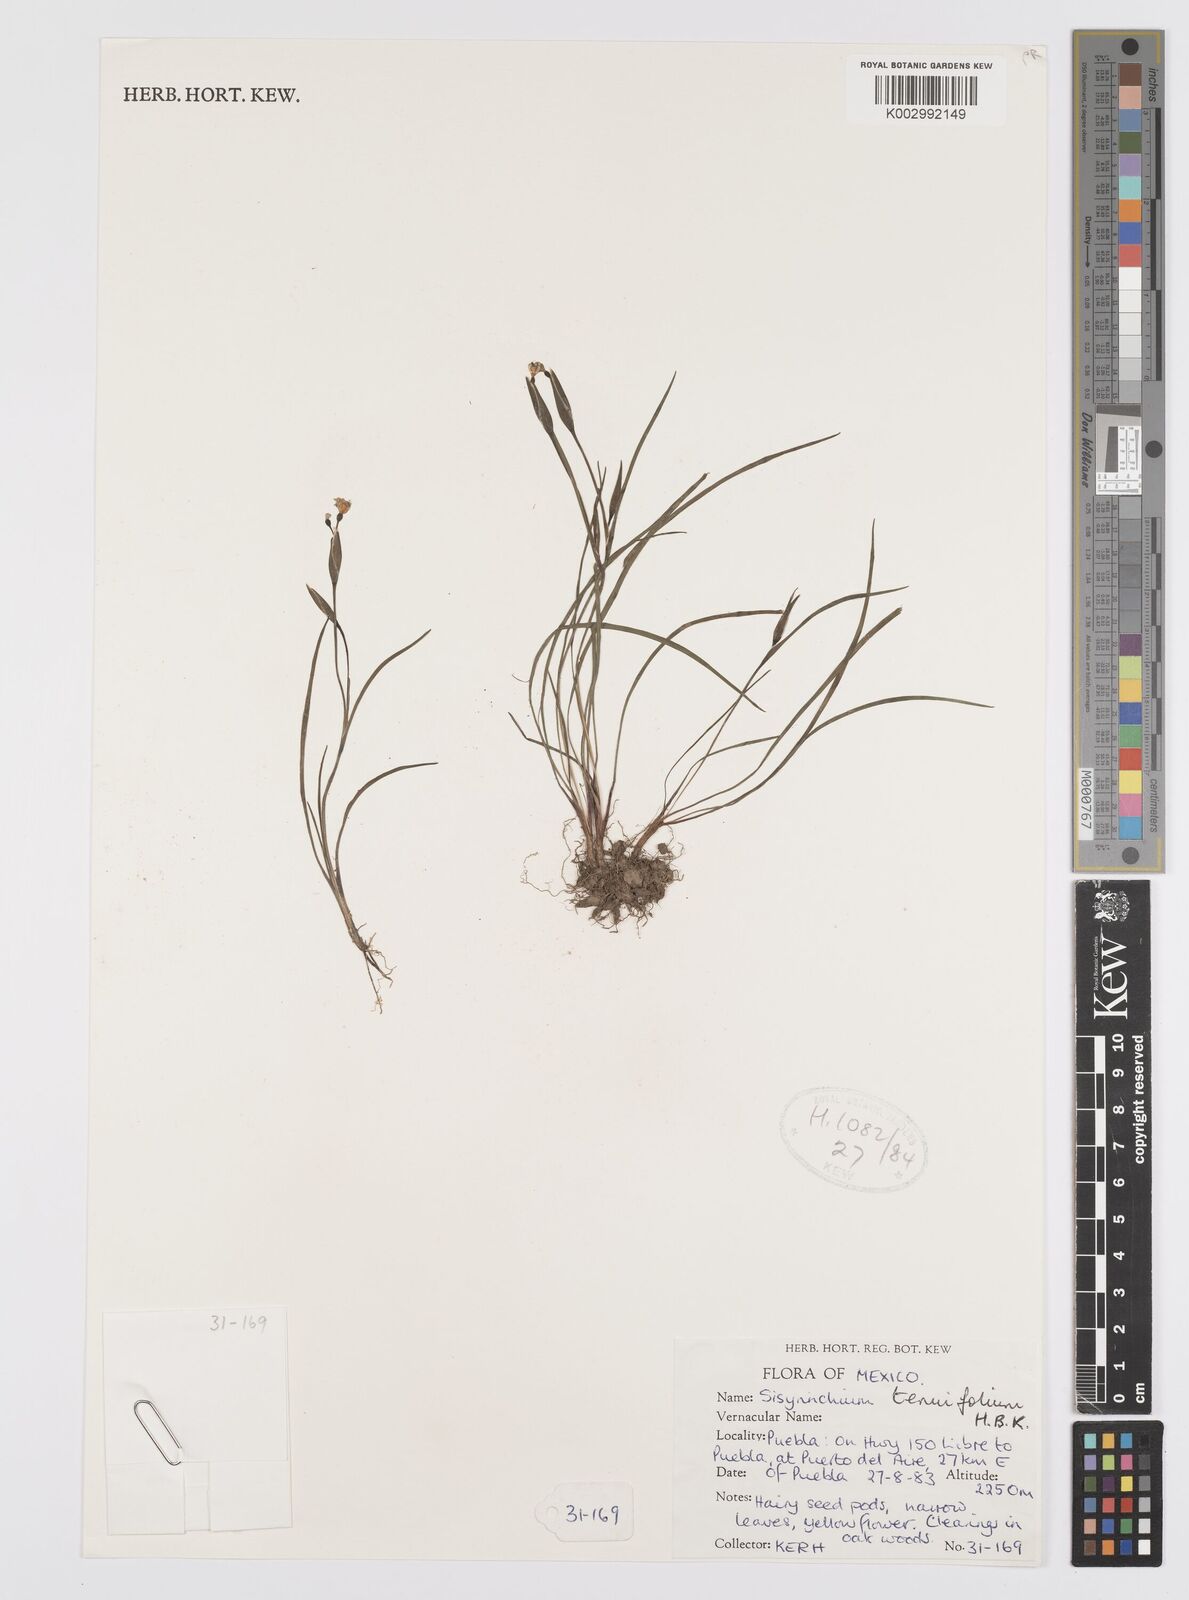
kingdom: Plantae
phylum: Tracheophyta
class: Liliopsida
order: Asparagales
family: Iridaceae
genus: Sisyrinchium
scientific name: Sisyrinchium langloisii
